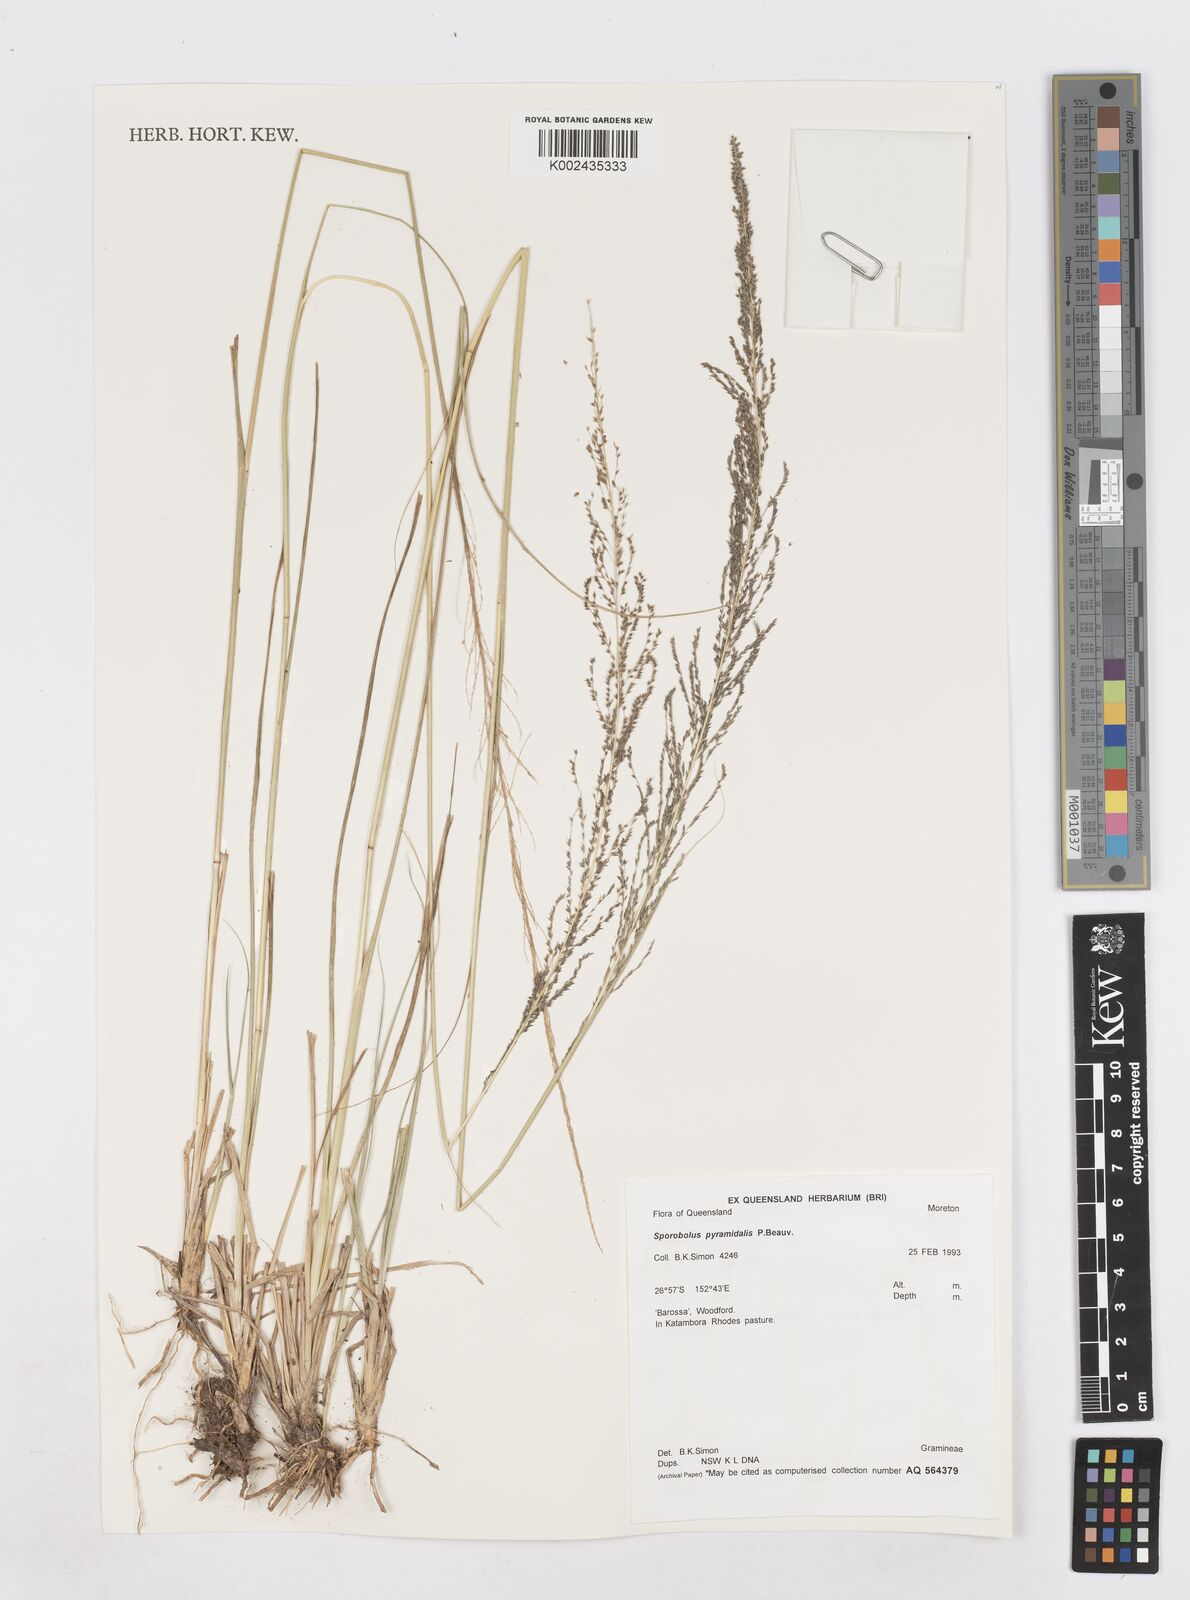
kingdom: Plantae
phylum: Tracheophyta
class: Liliopsida
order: Poales
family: Poaceae
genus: Sporobolus
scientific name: Sporobolus pyramidalis
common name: West indian dropseed
